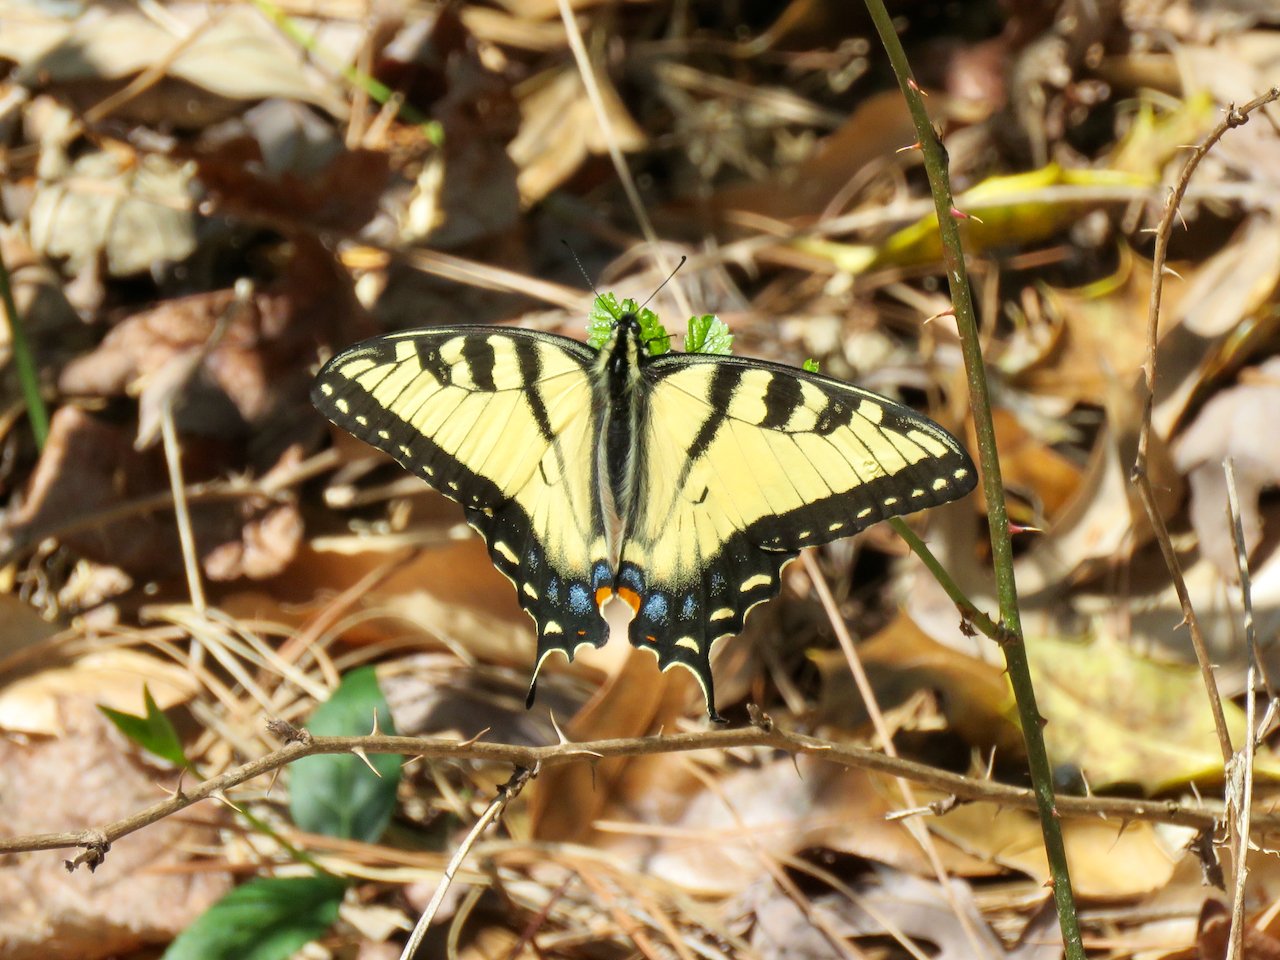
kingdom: Animalia
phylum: Arthropoda
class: Insecta
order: Lepidoptera
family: Papilionidae
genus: Pterourus
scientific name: Pterourus glaucus
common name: Eastern Tiger Swallowtail
